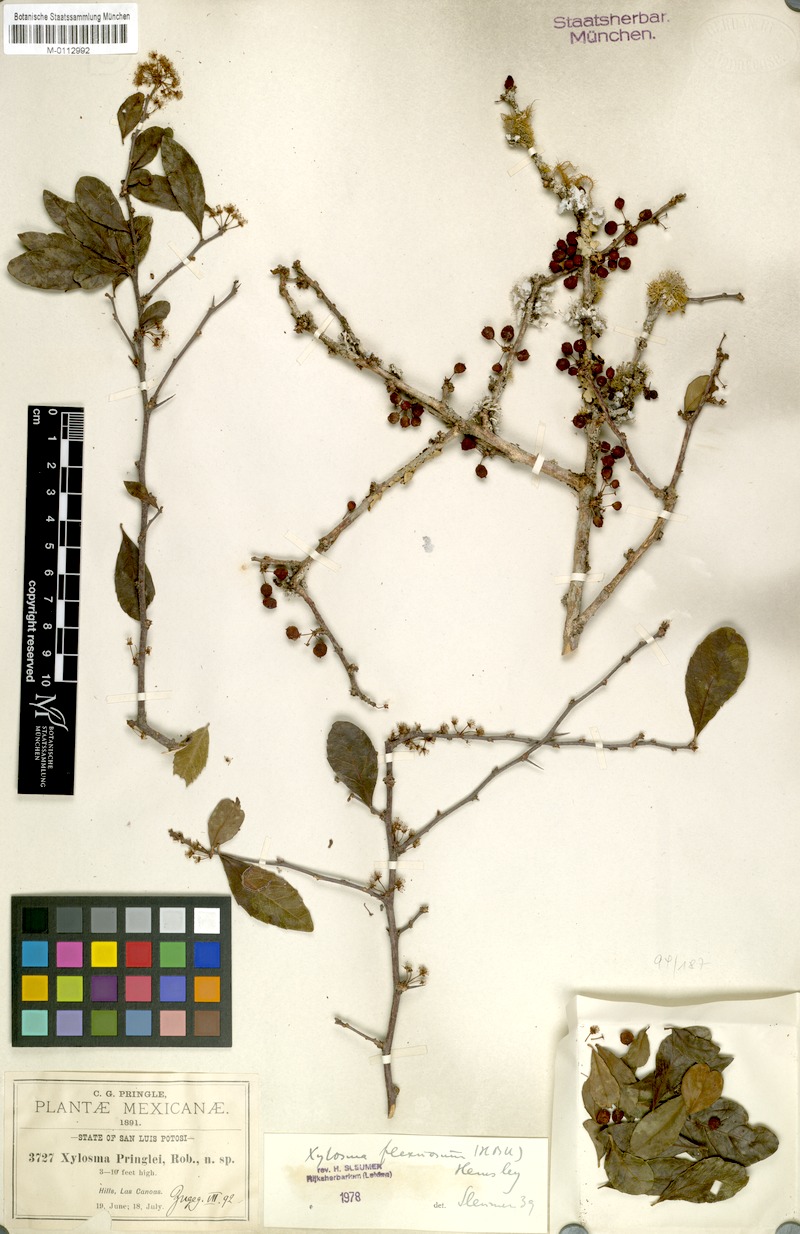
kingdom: Plantae
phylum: Tracheophyta
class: Magnoliopsida
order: Malpighiales
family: Salicaceae
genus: Xylosma
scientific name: Xylosma flexuosa
